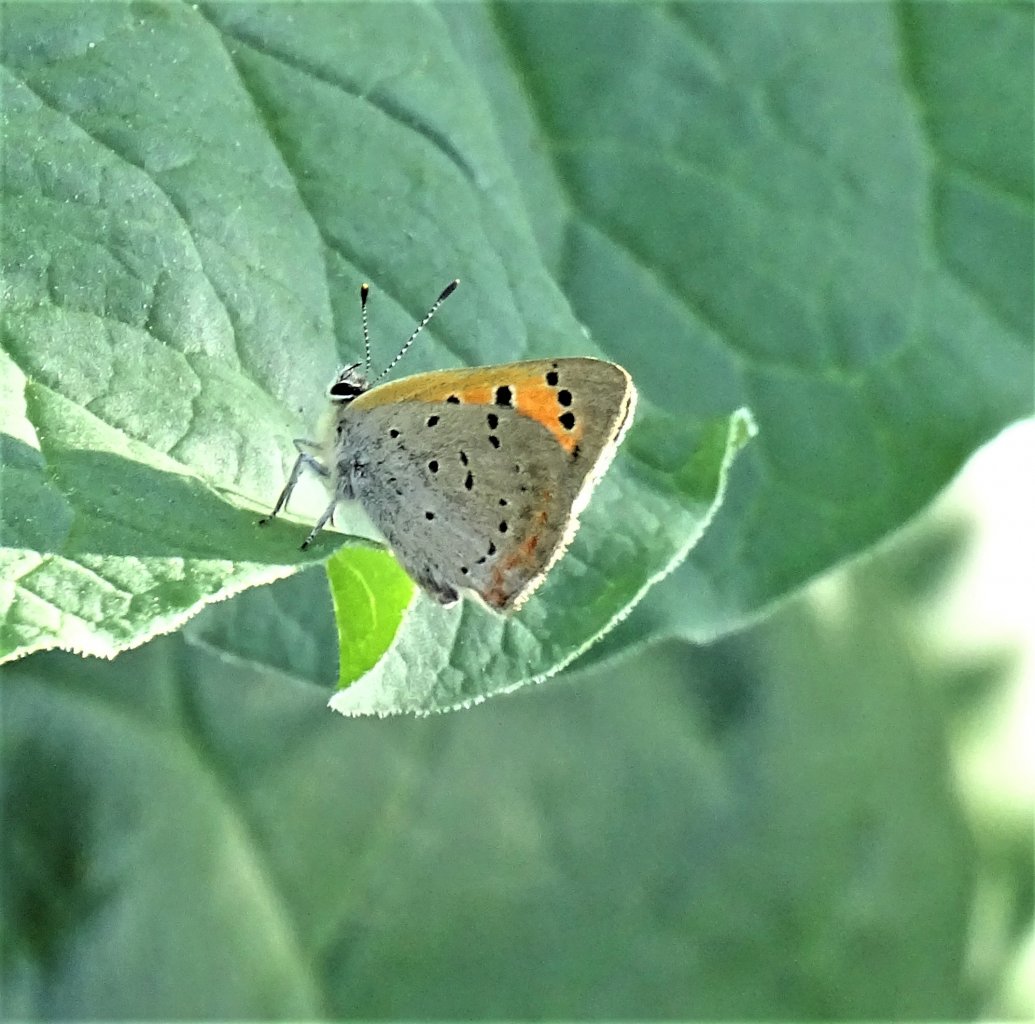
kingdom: Animalia
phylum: Arthropoda
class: Insecta
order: Lepidoptera
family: Lycaenidae
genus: Lycaena
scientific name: Lycaena phlaeas
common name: American Copper
